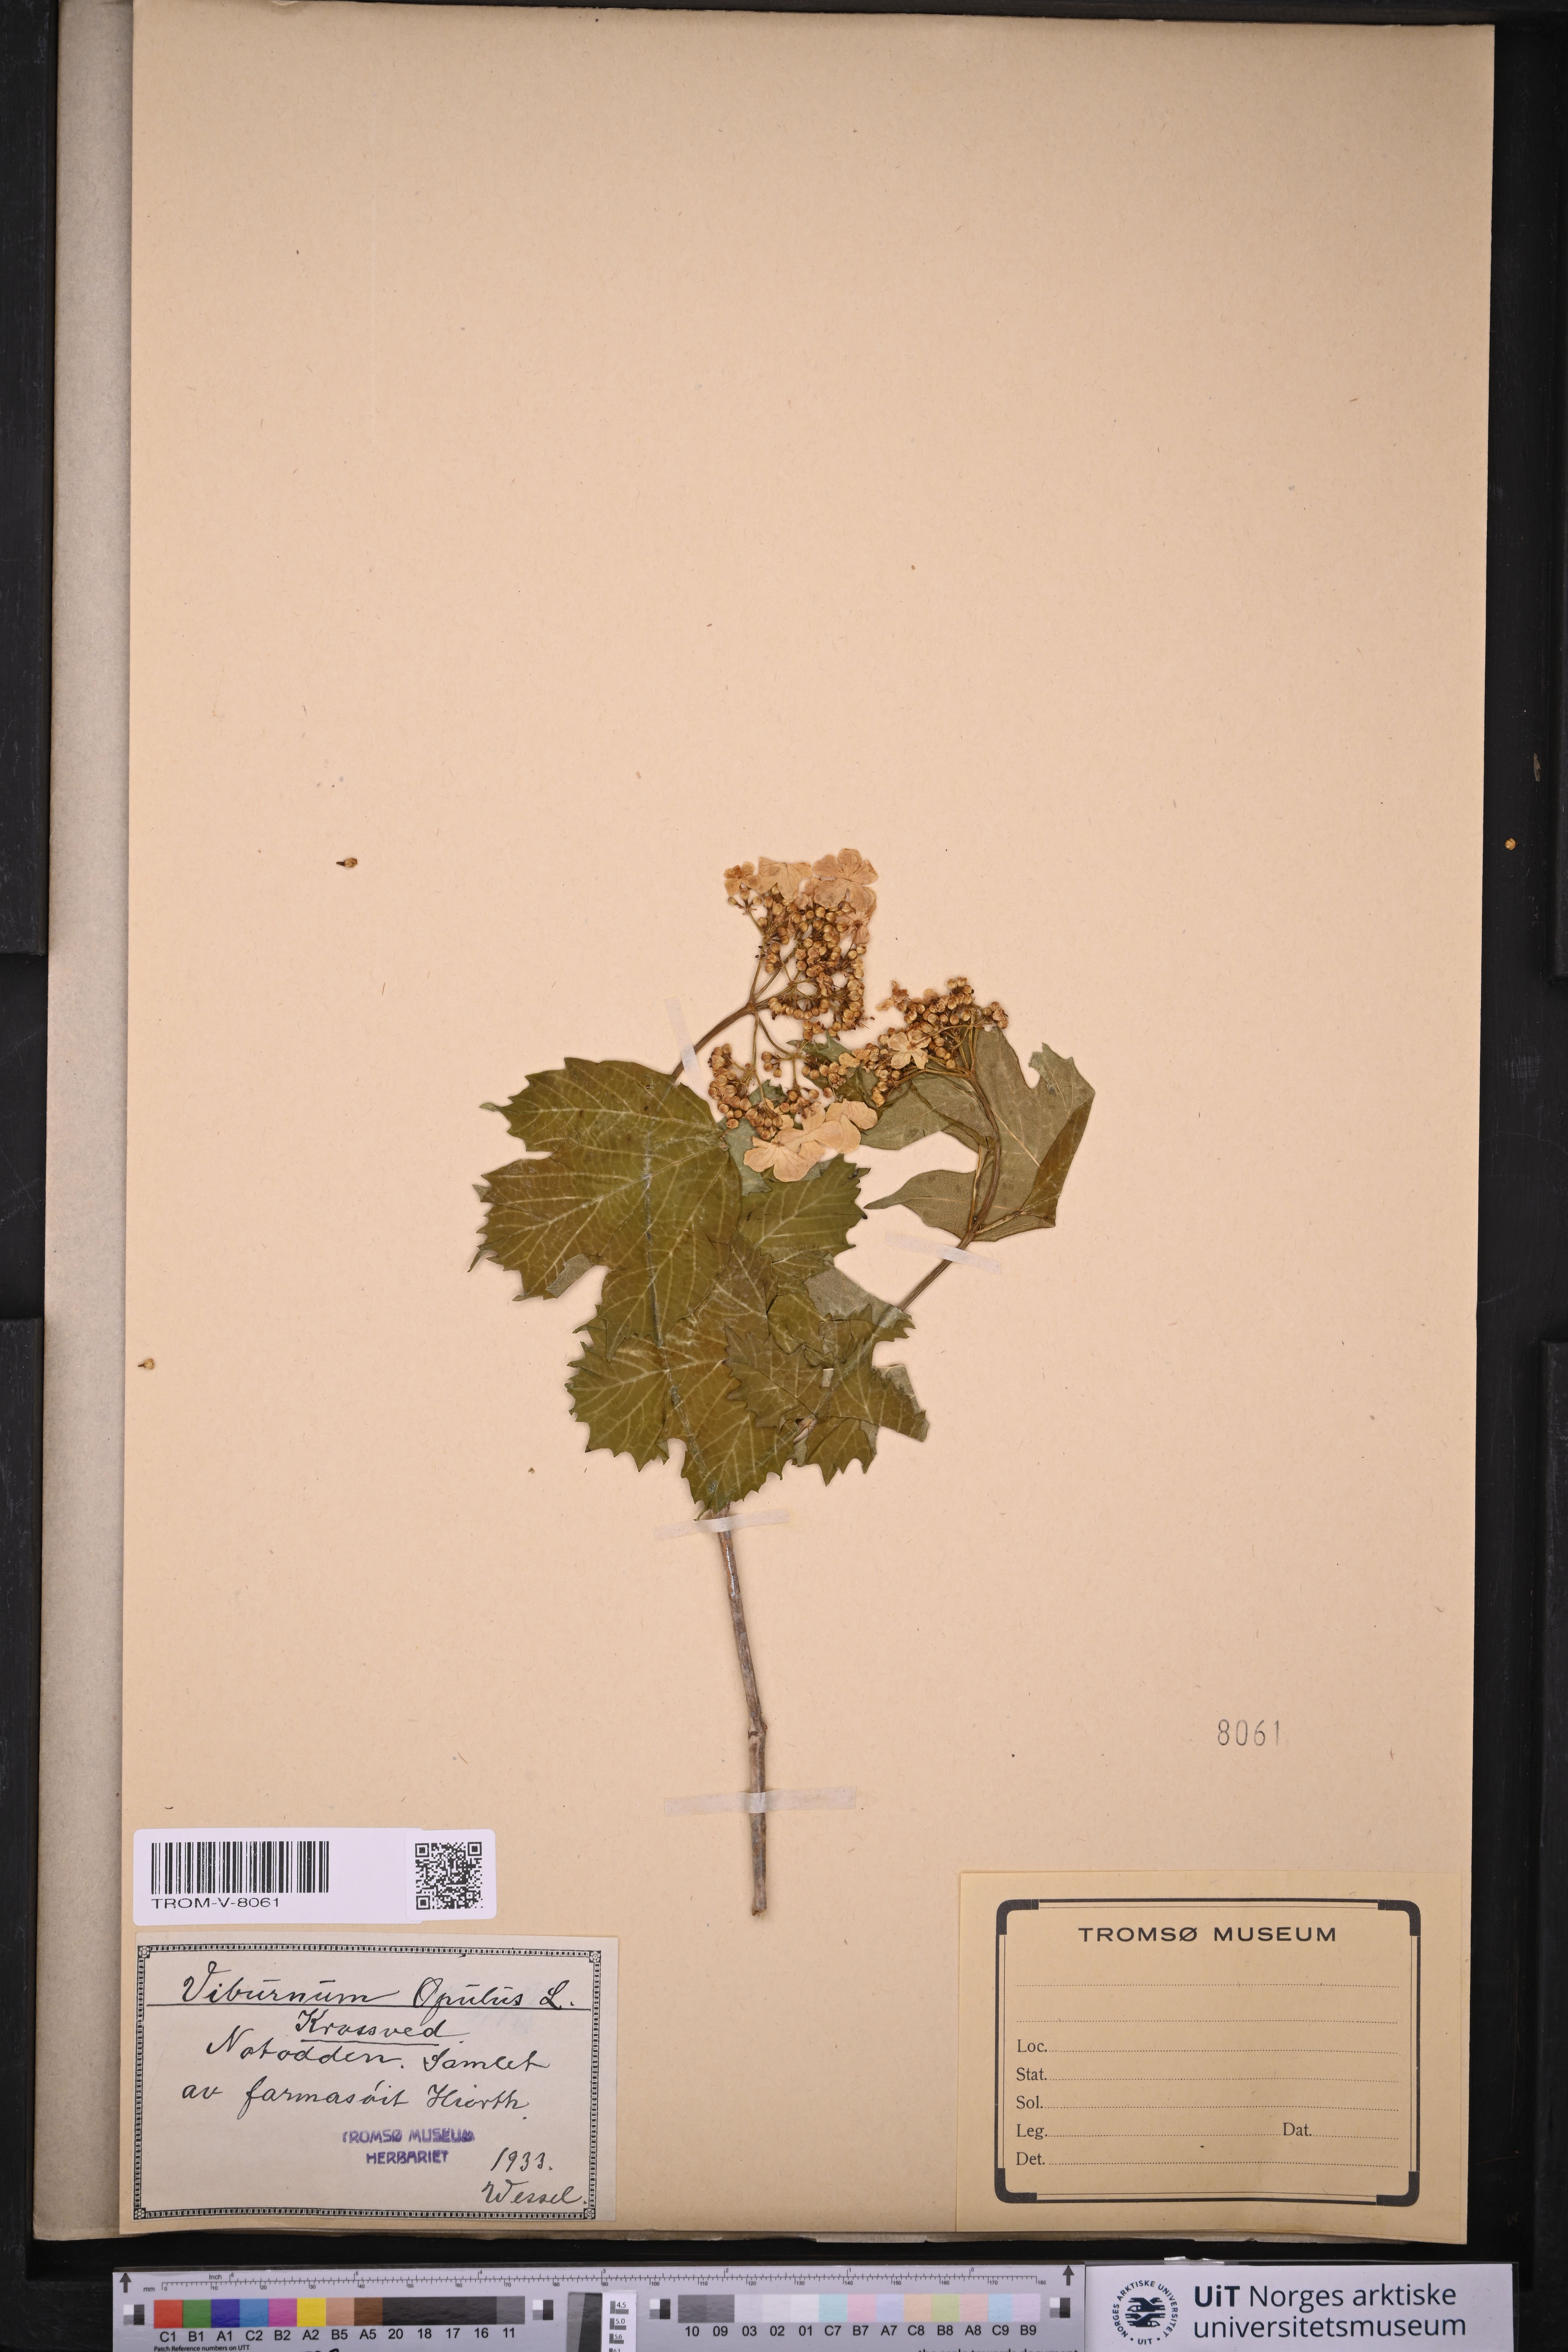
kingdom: Plantae
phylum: Tracheophyta
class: Magnoliopsida
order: Dipsacales
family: Viburnaceae
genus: Viburnum
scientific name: Viburnum opulus
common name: Guelder-rose
